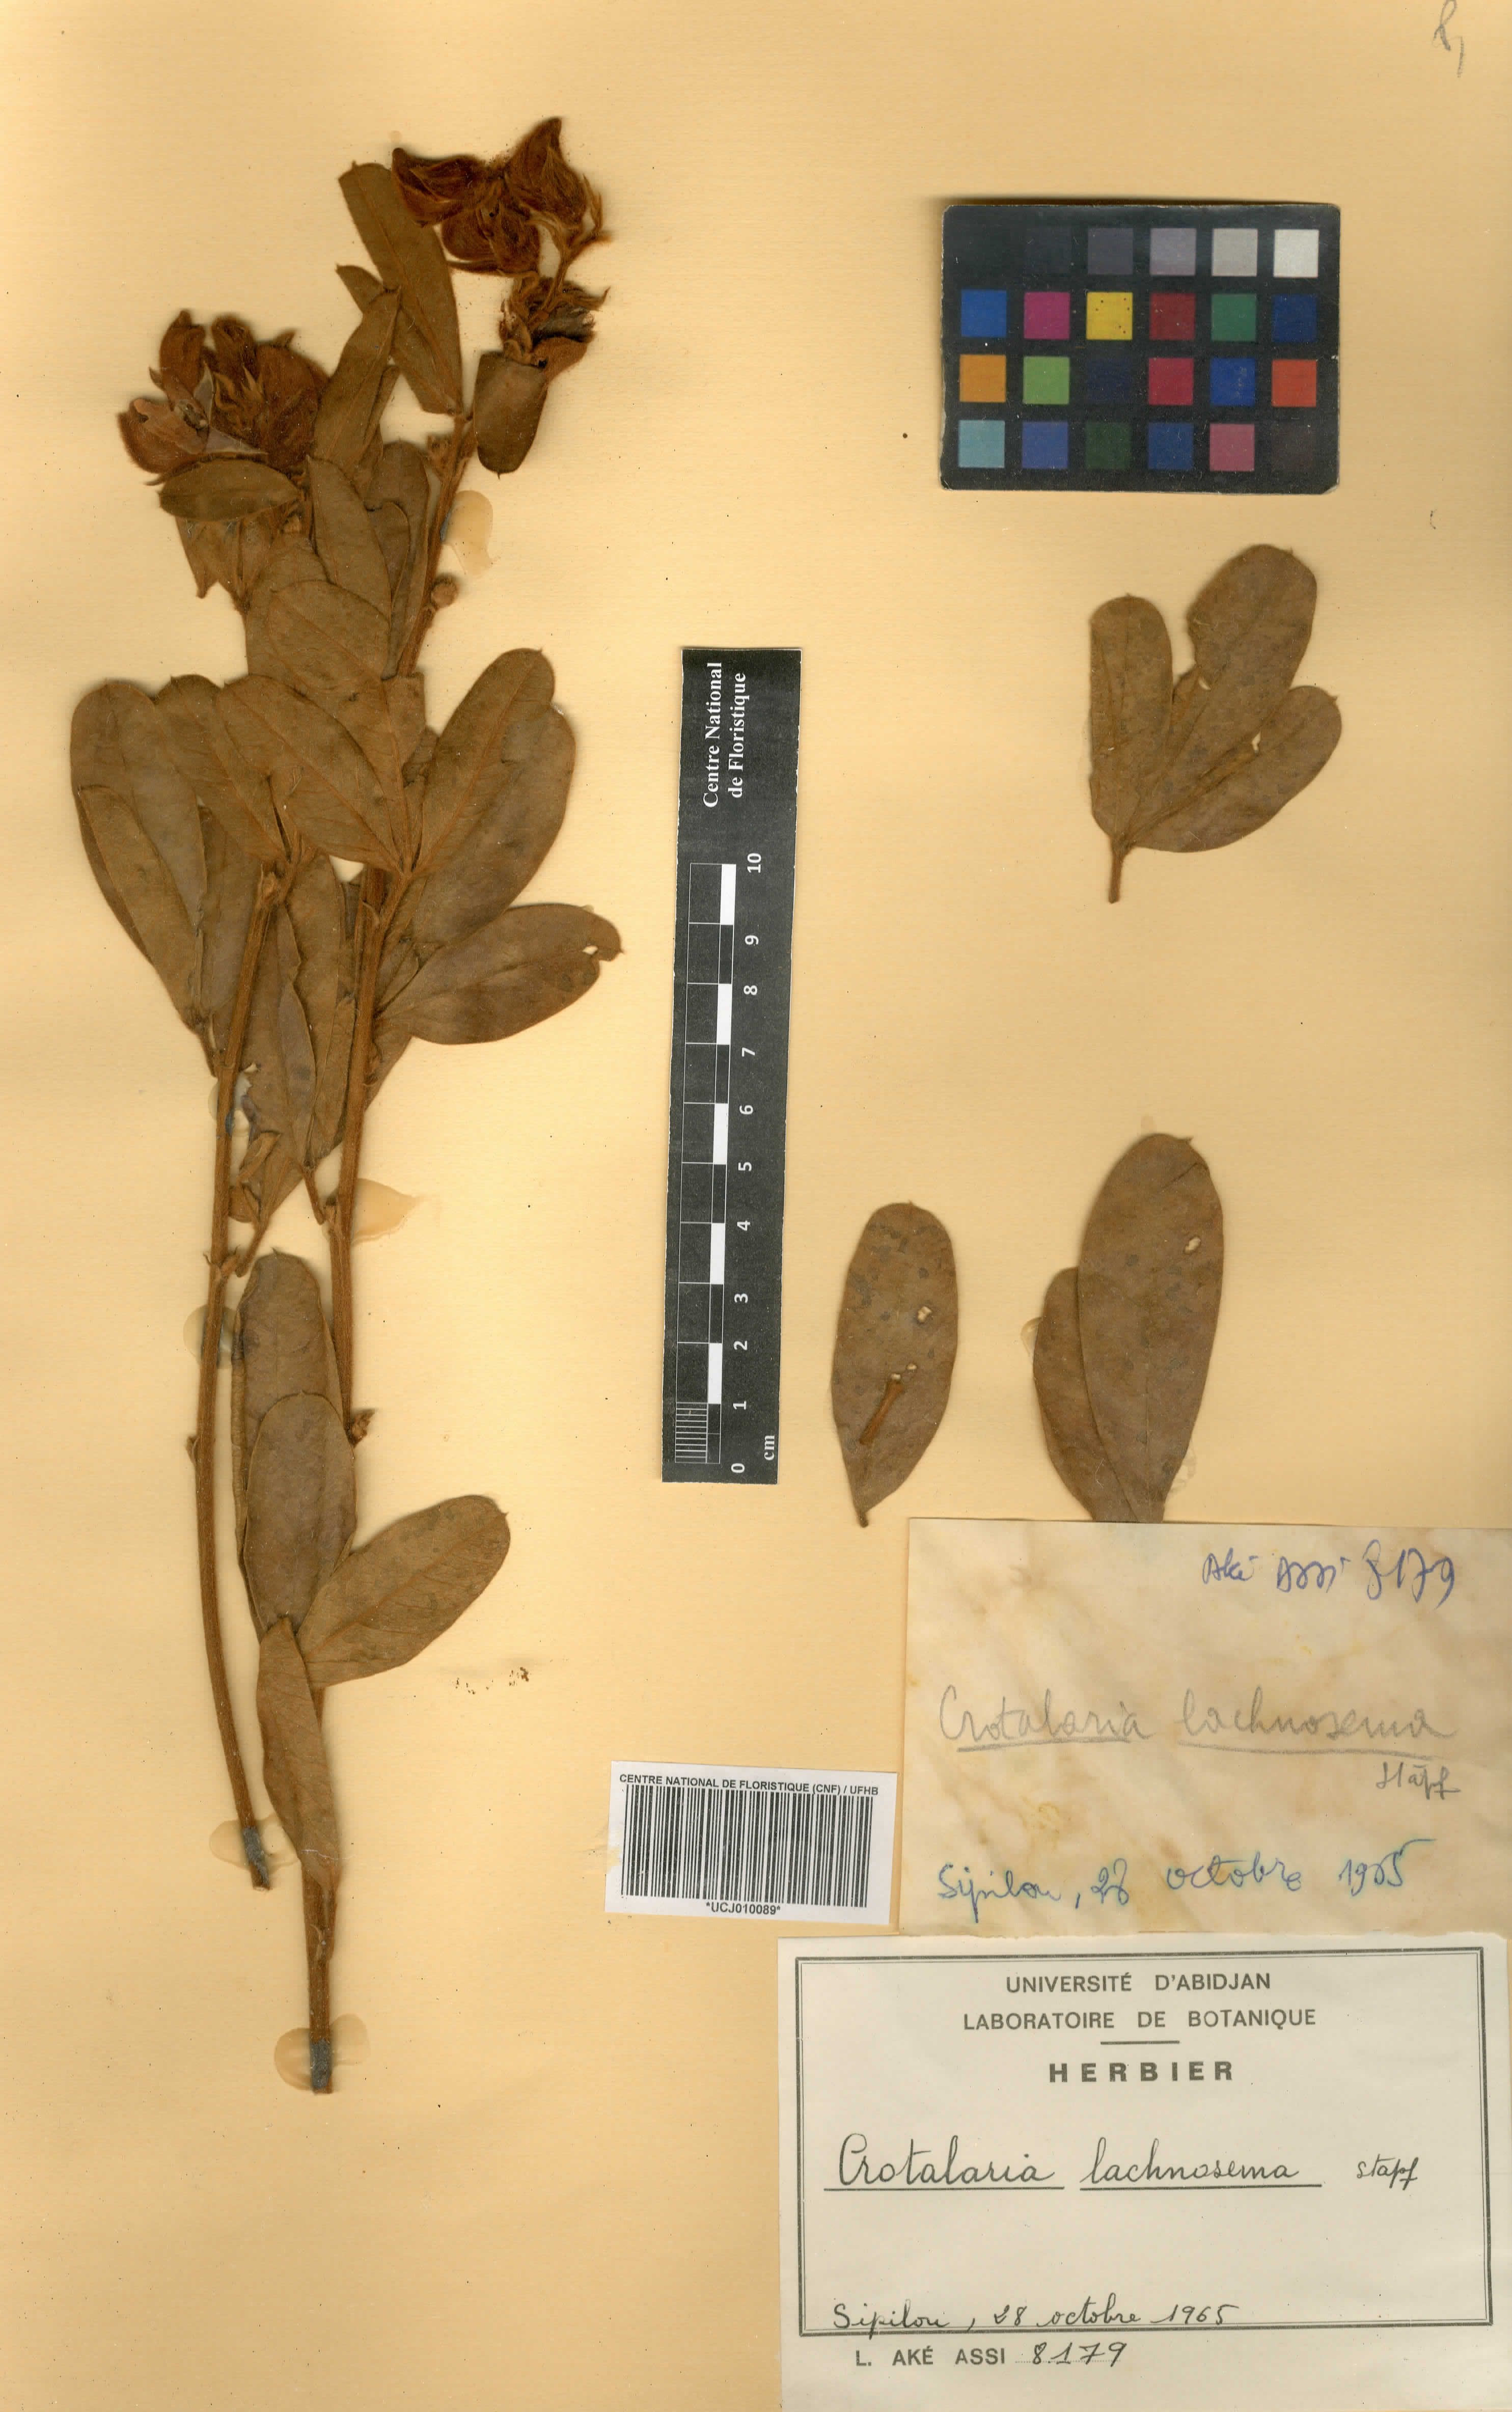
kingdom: Plantae
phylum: Tracheophyta
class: Magnoliopsida
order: Fabales
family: Fabaceae
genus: Crotalaria
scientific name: Crotalaria lachnosema
